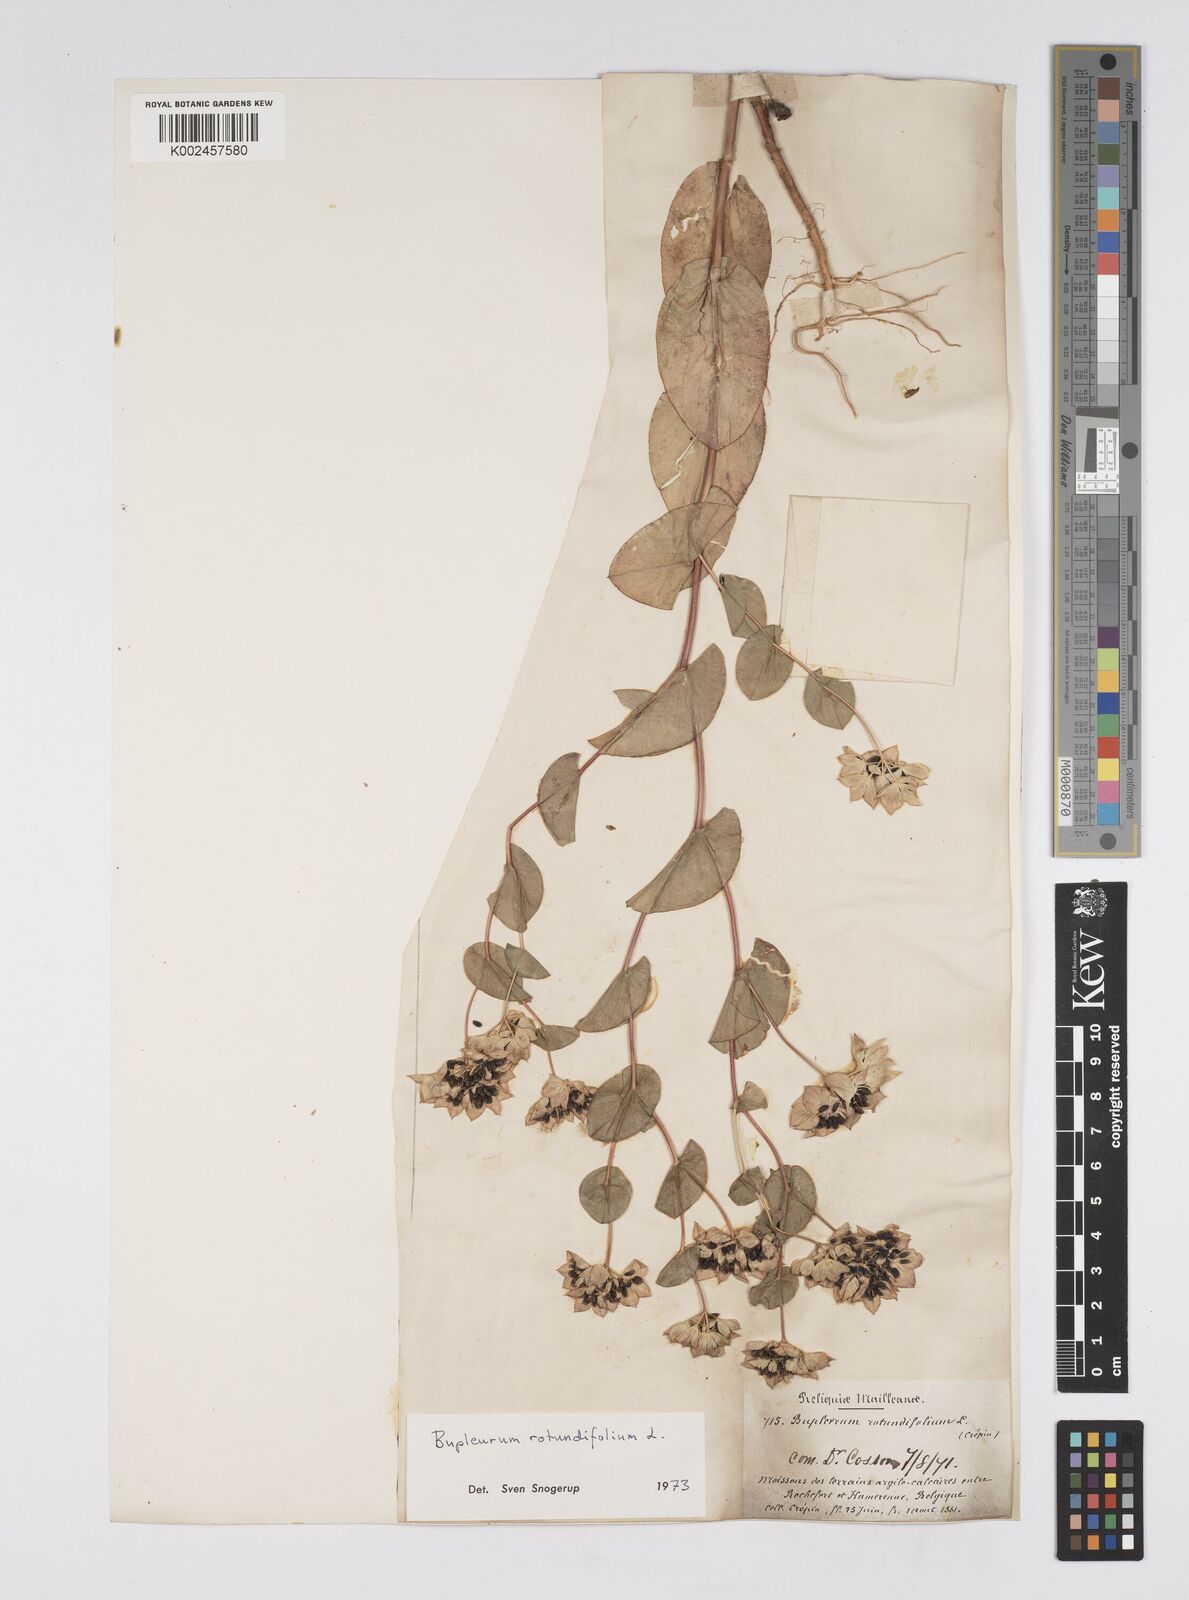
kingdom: Plantae
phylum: Tracheophyta
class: Magnoliopsida
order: Apiales
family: Apiaceae
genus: Bupleurum
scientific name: Bupleurum rotundifolium
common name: Thorow-wax
